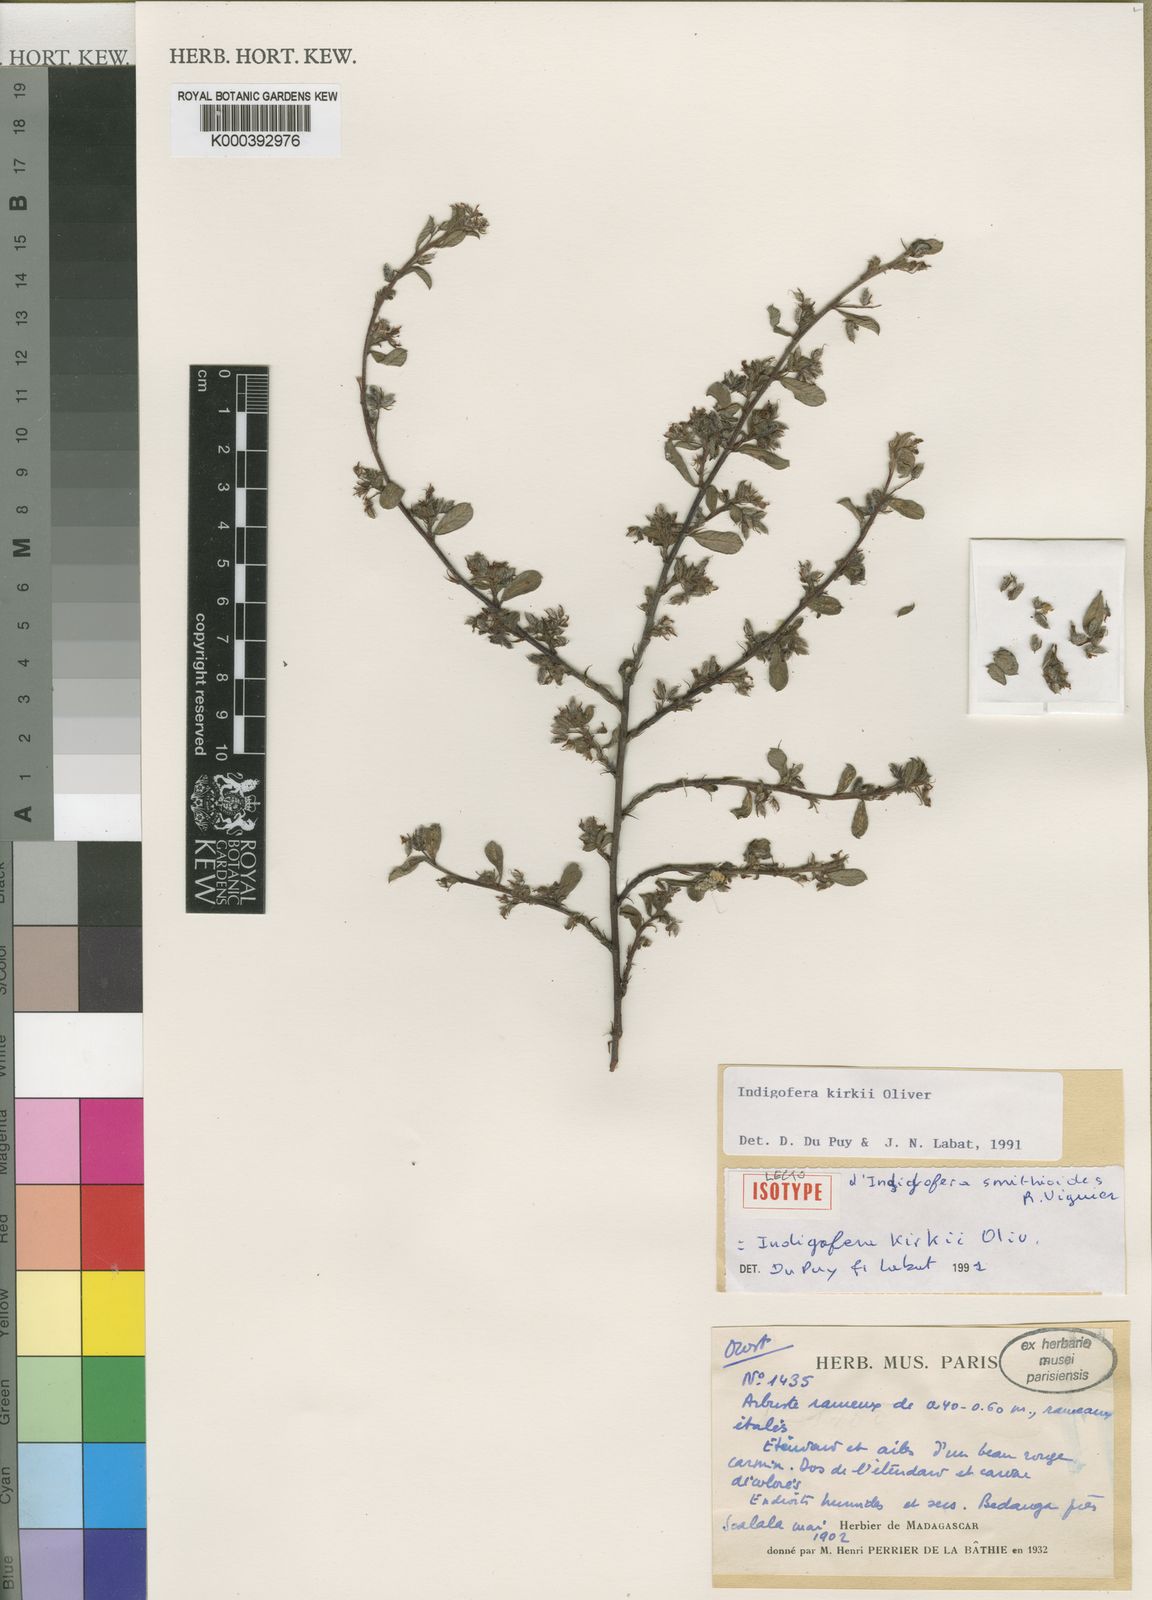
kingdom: Plantae
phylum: Tracheophyta
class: Magnoliopsida
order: Fabales
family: Fabaceae
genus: Indigofera
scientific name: Indigofera kirkii
